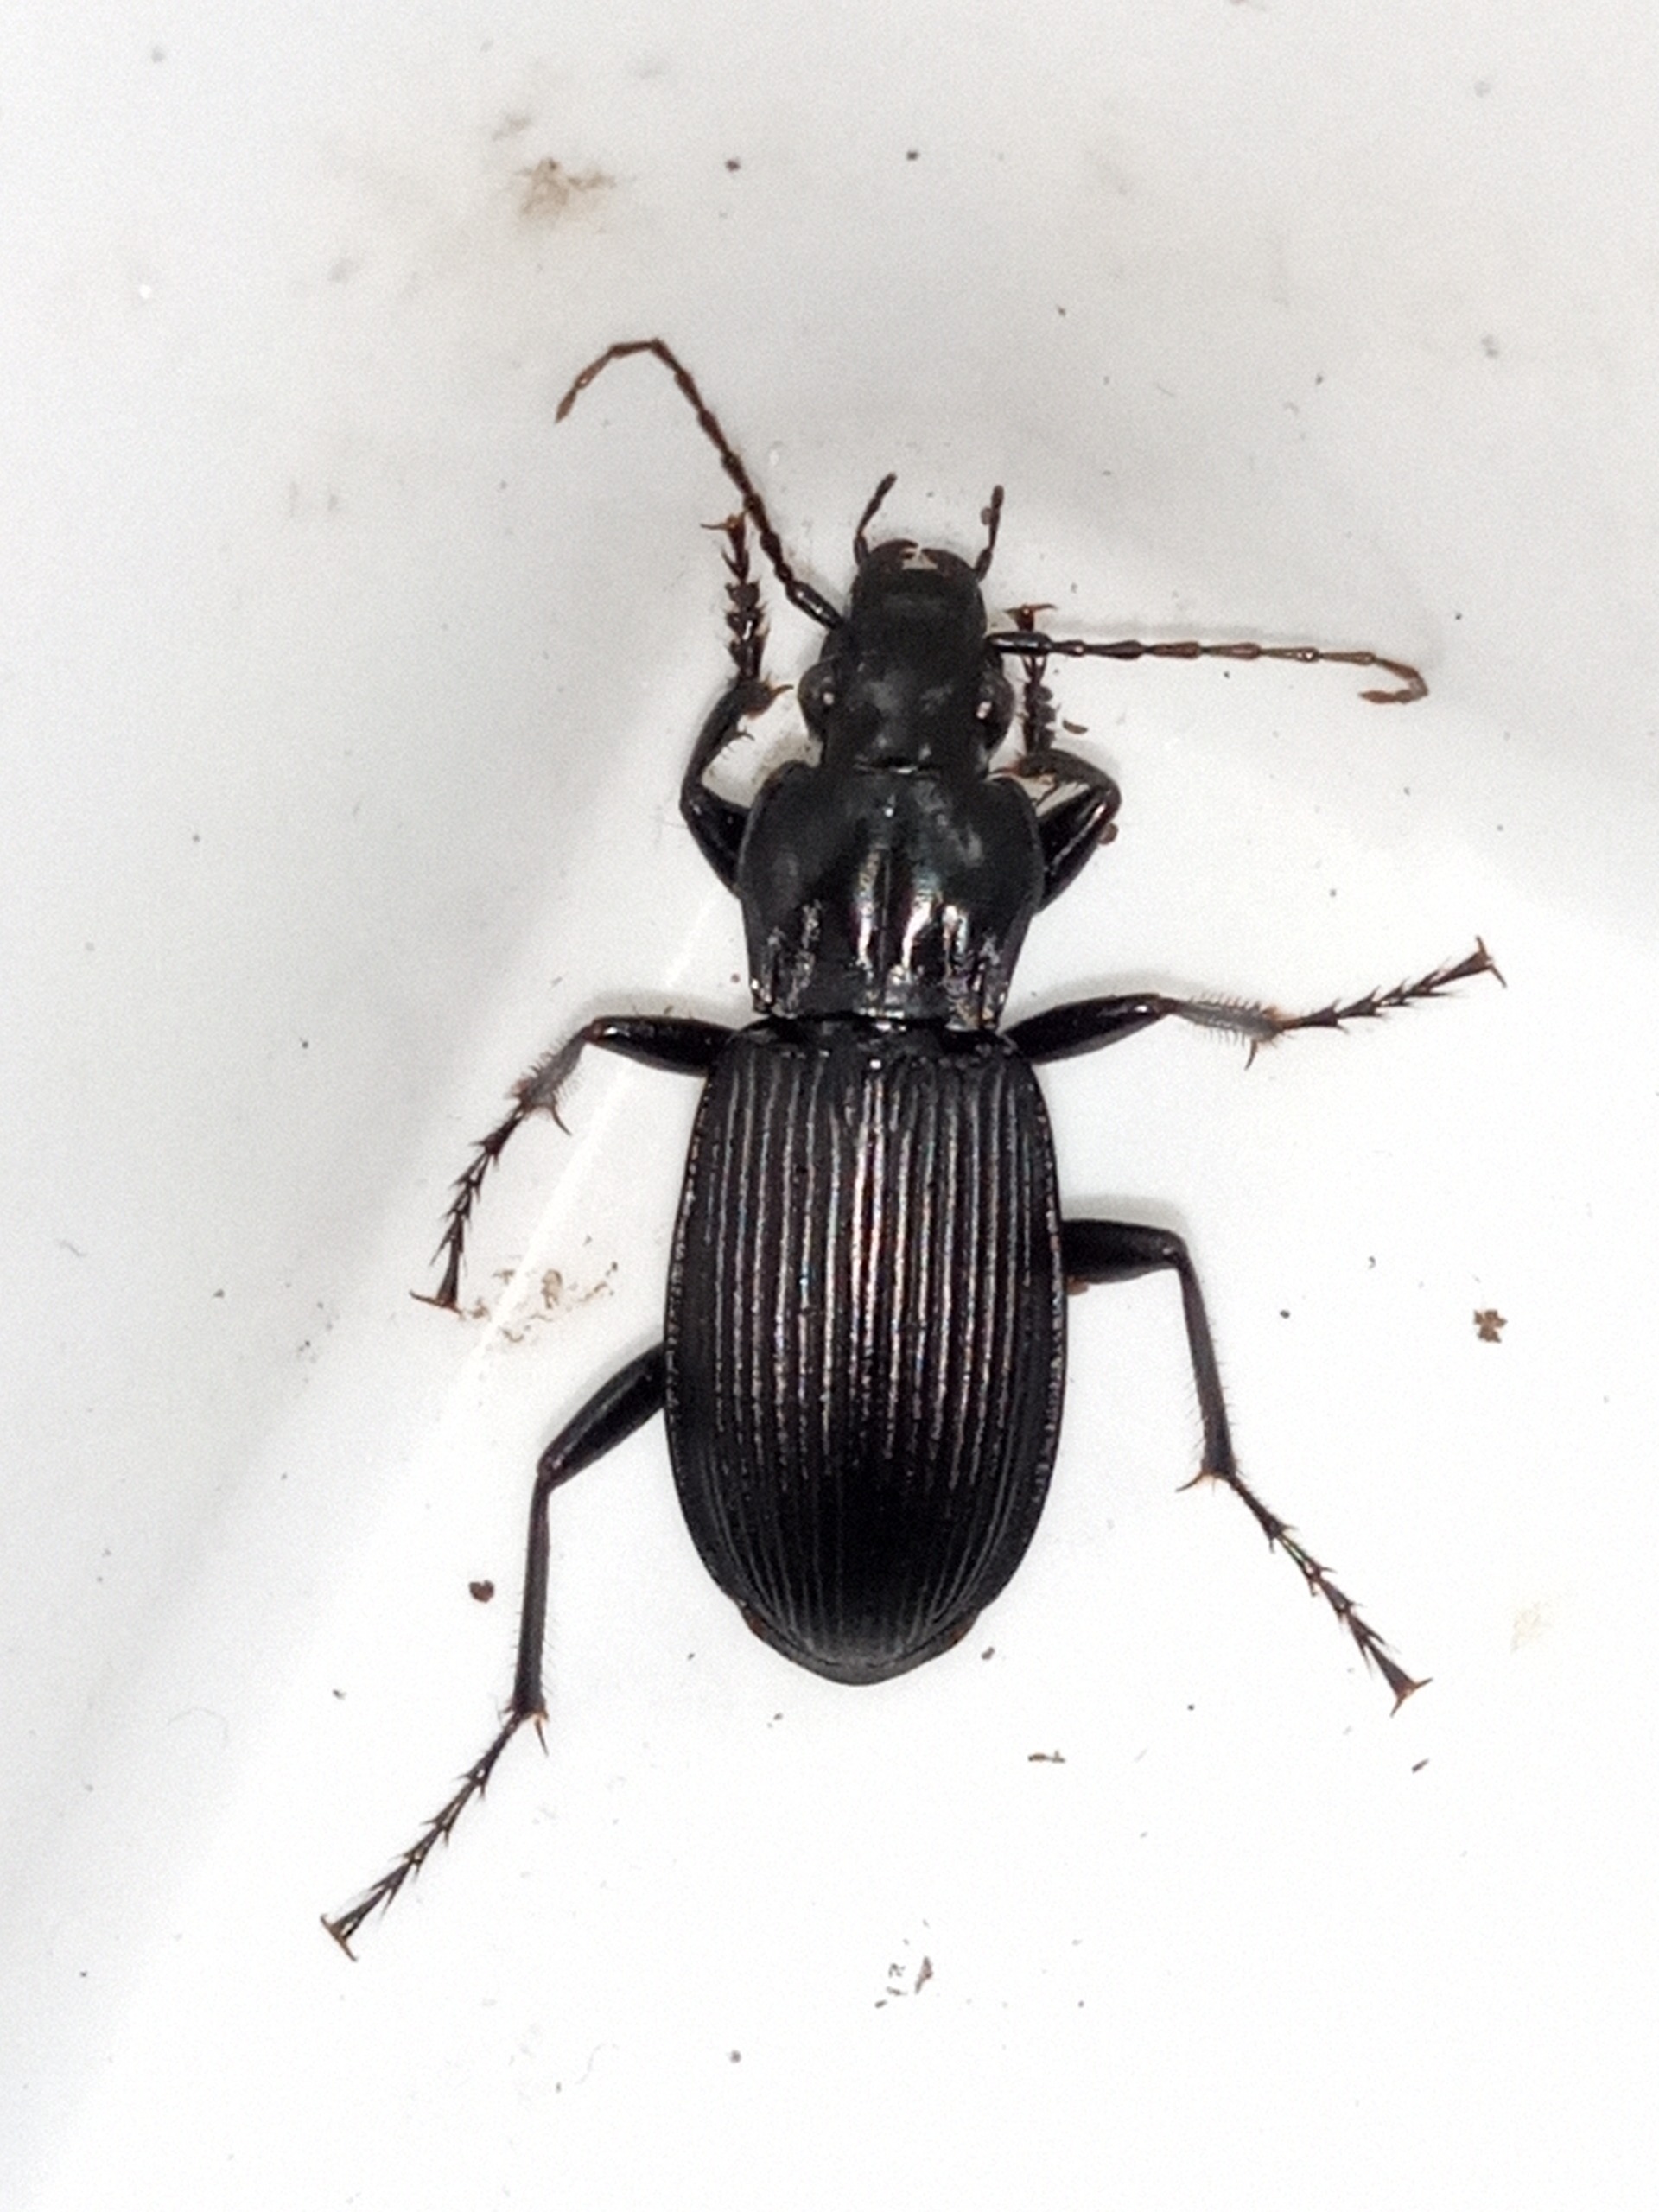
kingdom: Animalia
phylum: Arthropoda
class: Insecta
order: Coleoptera
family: Carabidae
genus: Pterostichus
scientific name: Pterostichus niger
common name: Skovjordløber
